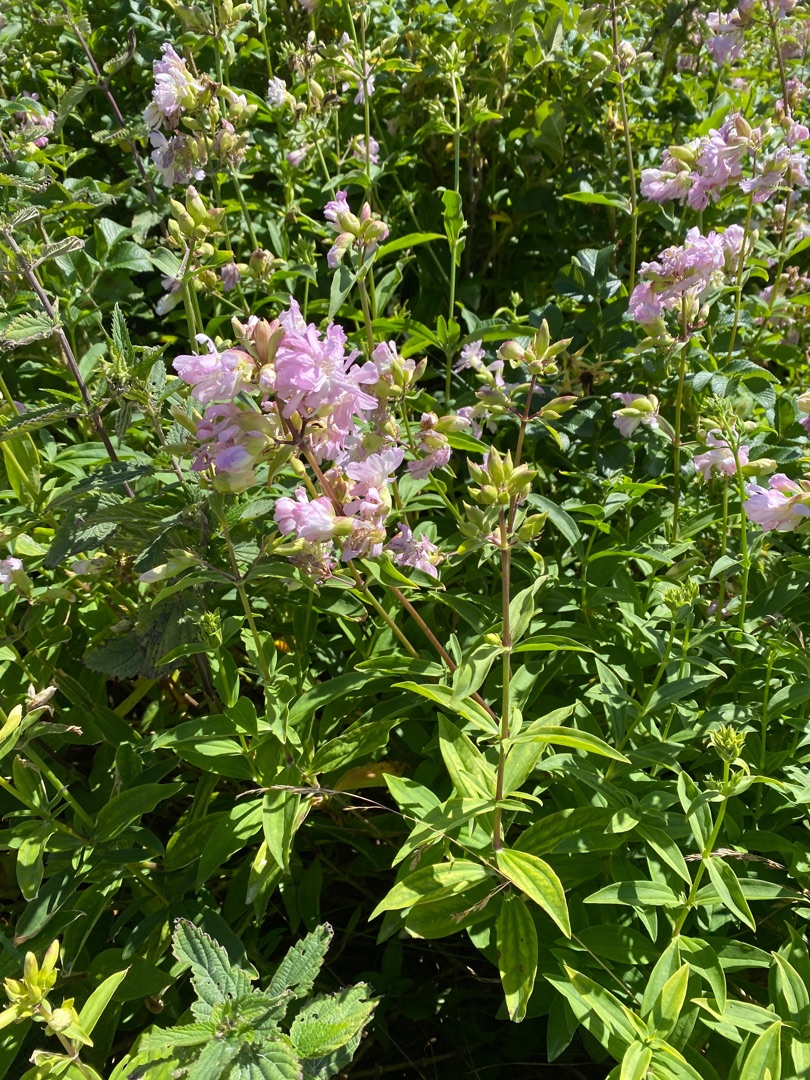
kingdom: Plantae
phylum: Tracheophyta
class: Magnoliopsida
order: Caryophyllales
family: Caryophyllaceae
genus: Saponaria
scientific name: Saponaria officinalis
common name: Sæbeurt
